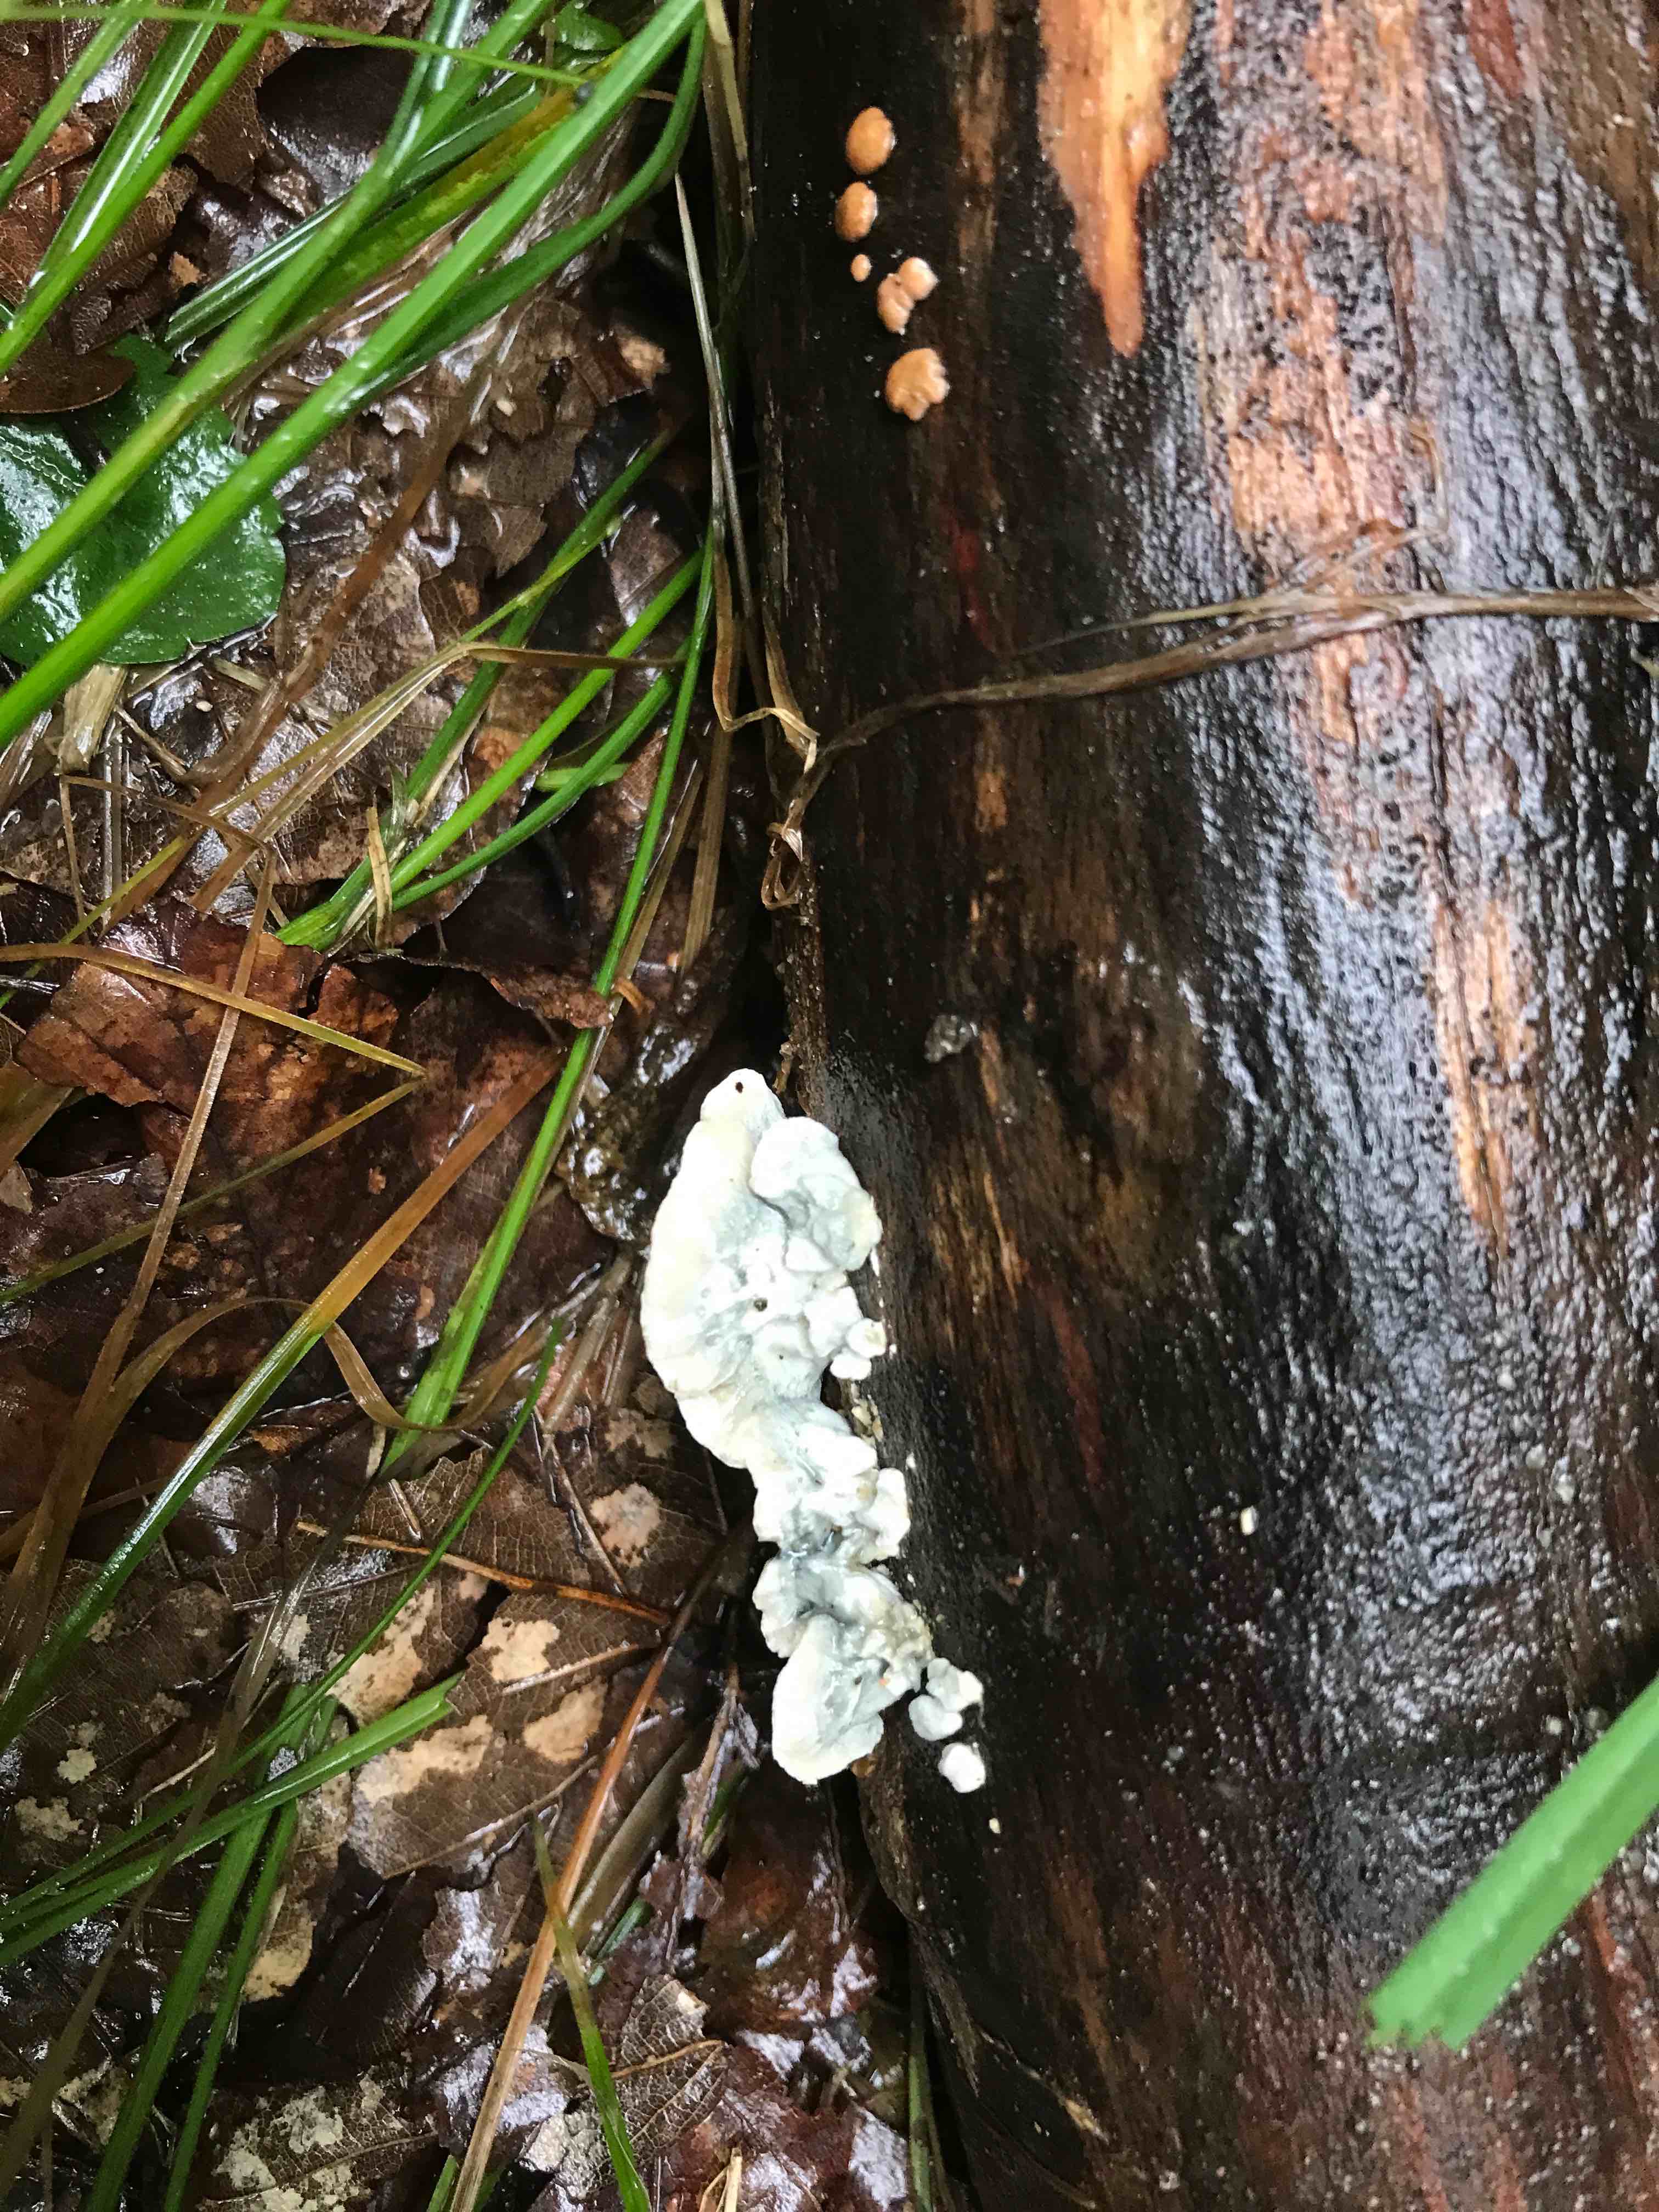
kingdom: Fungi
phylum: Basidiomycota
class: Agaricomycetes
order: Polyporales
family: Polyporaceae
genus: Cyanosporus
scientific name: Cyanosporus caesius
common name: blålig kødporesvamp
